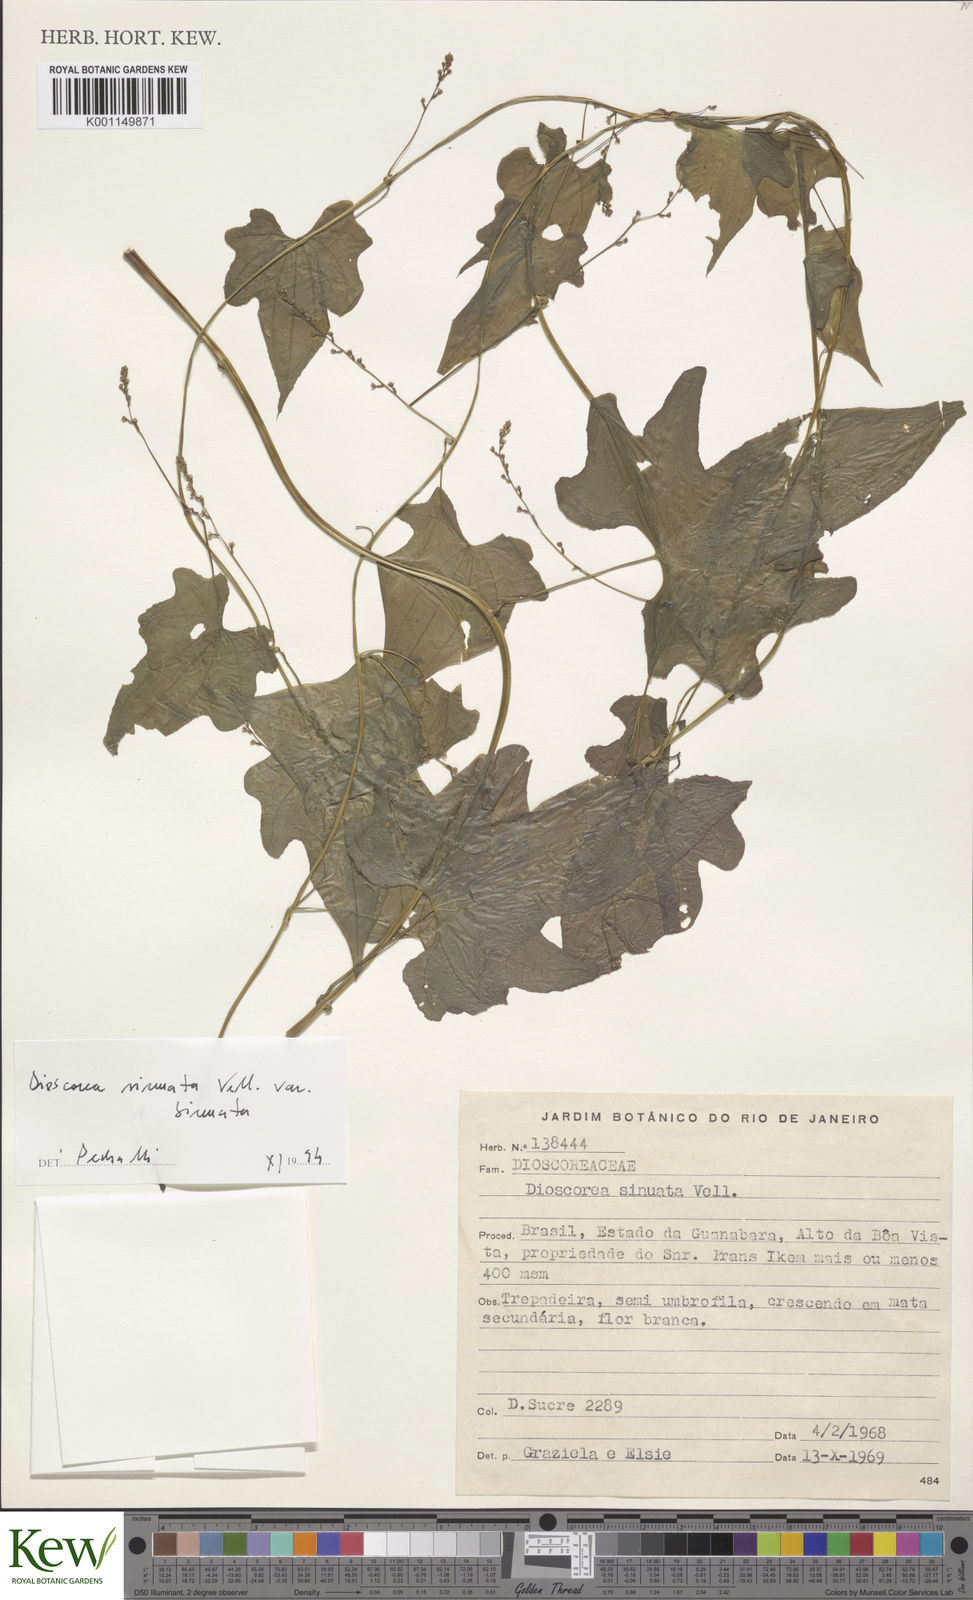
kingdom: Plantae
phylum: Tracheophyta
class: Liliopsida
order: Dioscoreales
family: Dioscoreaceae
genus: Dioscorea
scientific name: Dioscorea sinuata
